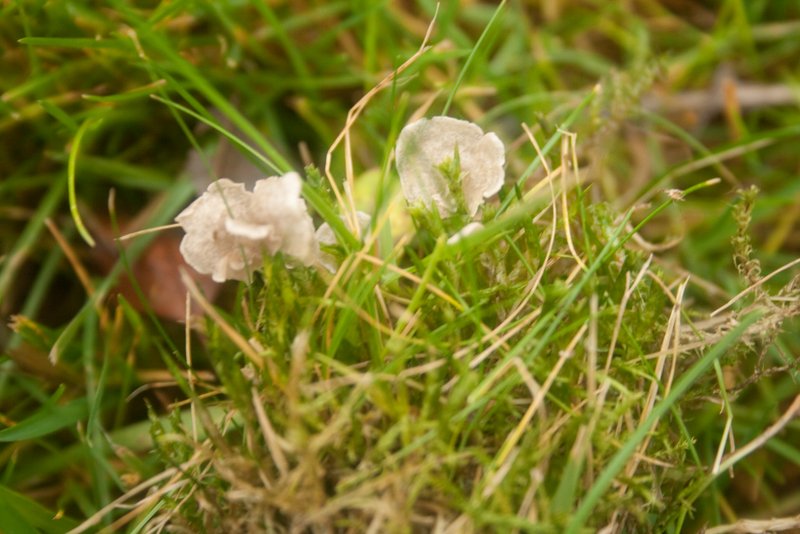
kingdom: Fungi
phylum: Basidiomycota
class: Agaricomycetes
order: Agaricales
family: Hygrophoraceae
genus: Arrhenia
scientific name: Arrhenia retiruga
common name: lille fontænehat
